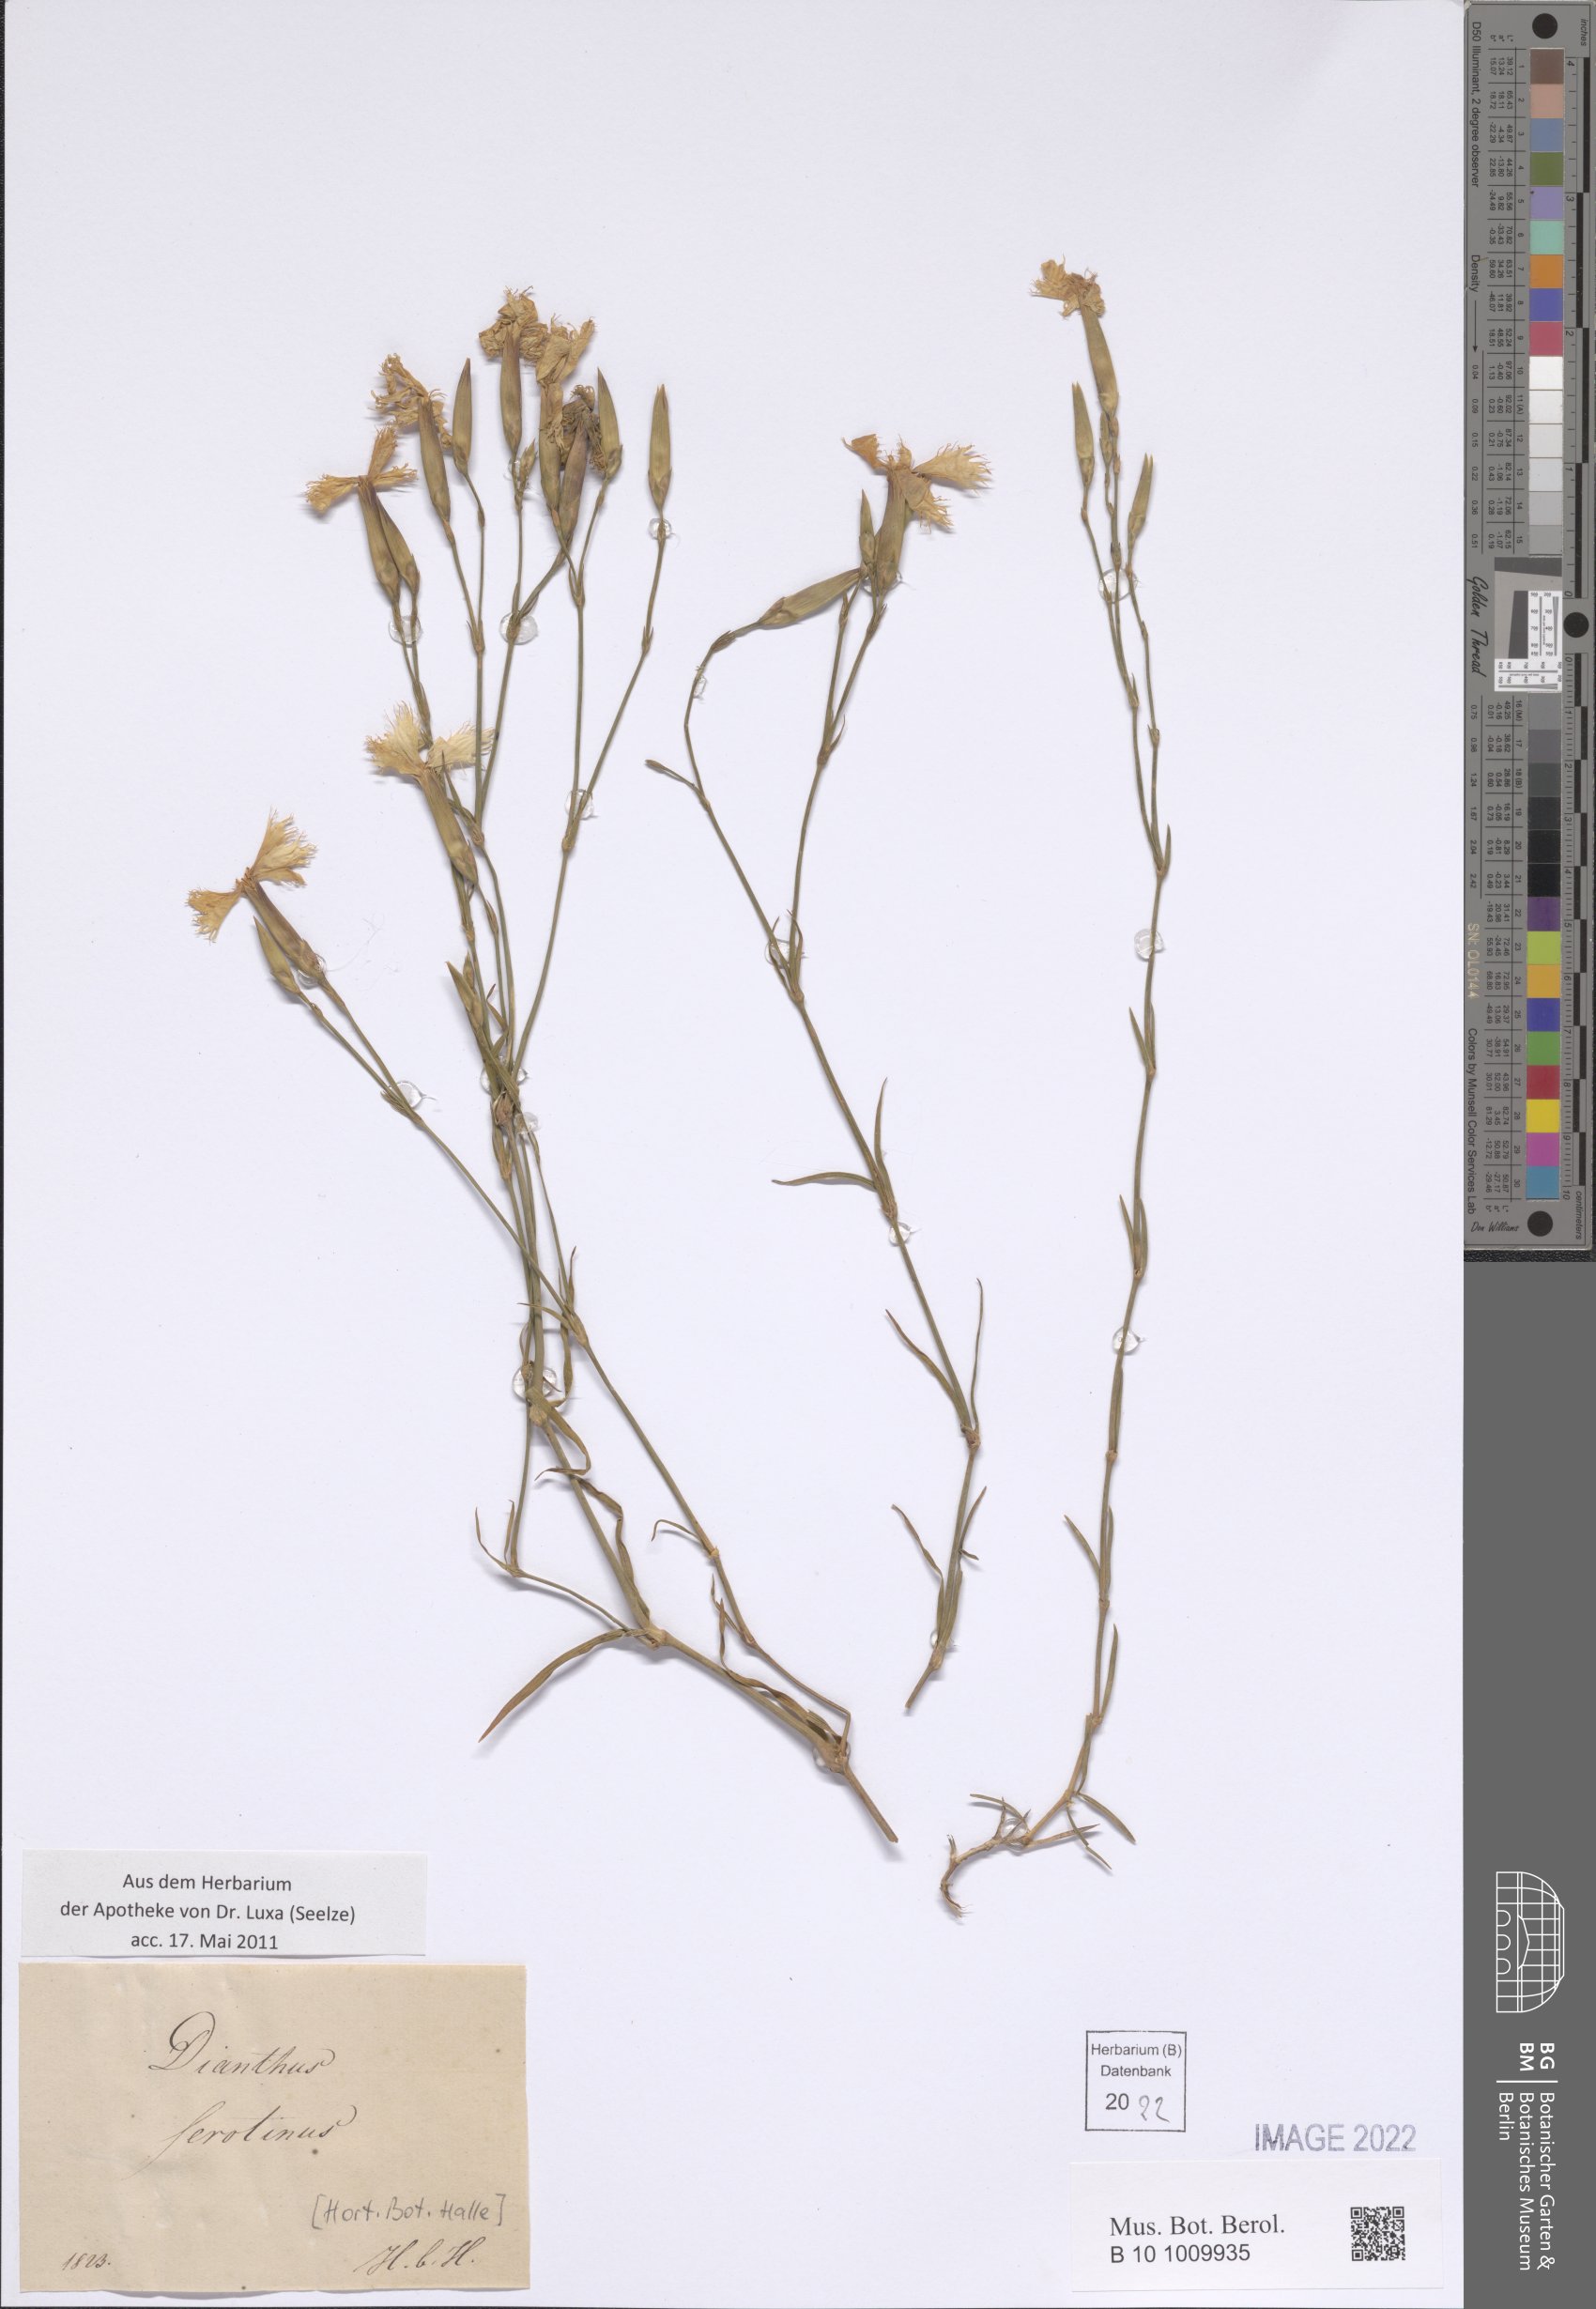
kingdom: Plantae
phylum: Tracheophyta
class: Magnoliopsida
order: Caryophyllales
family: Caryophyllaceae
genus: Dianthus
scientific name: Dianthus serotinus
